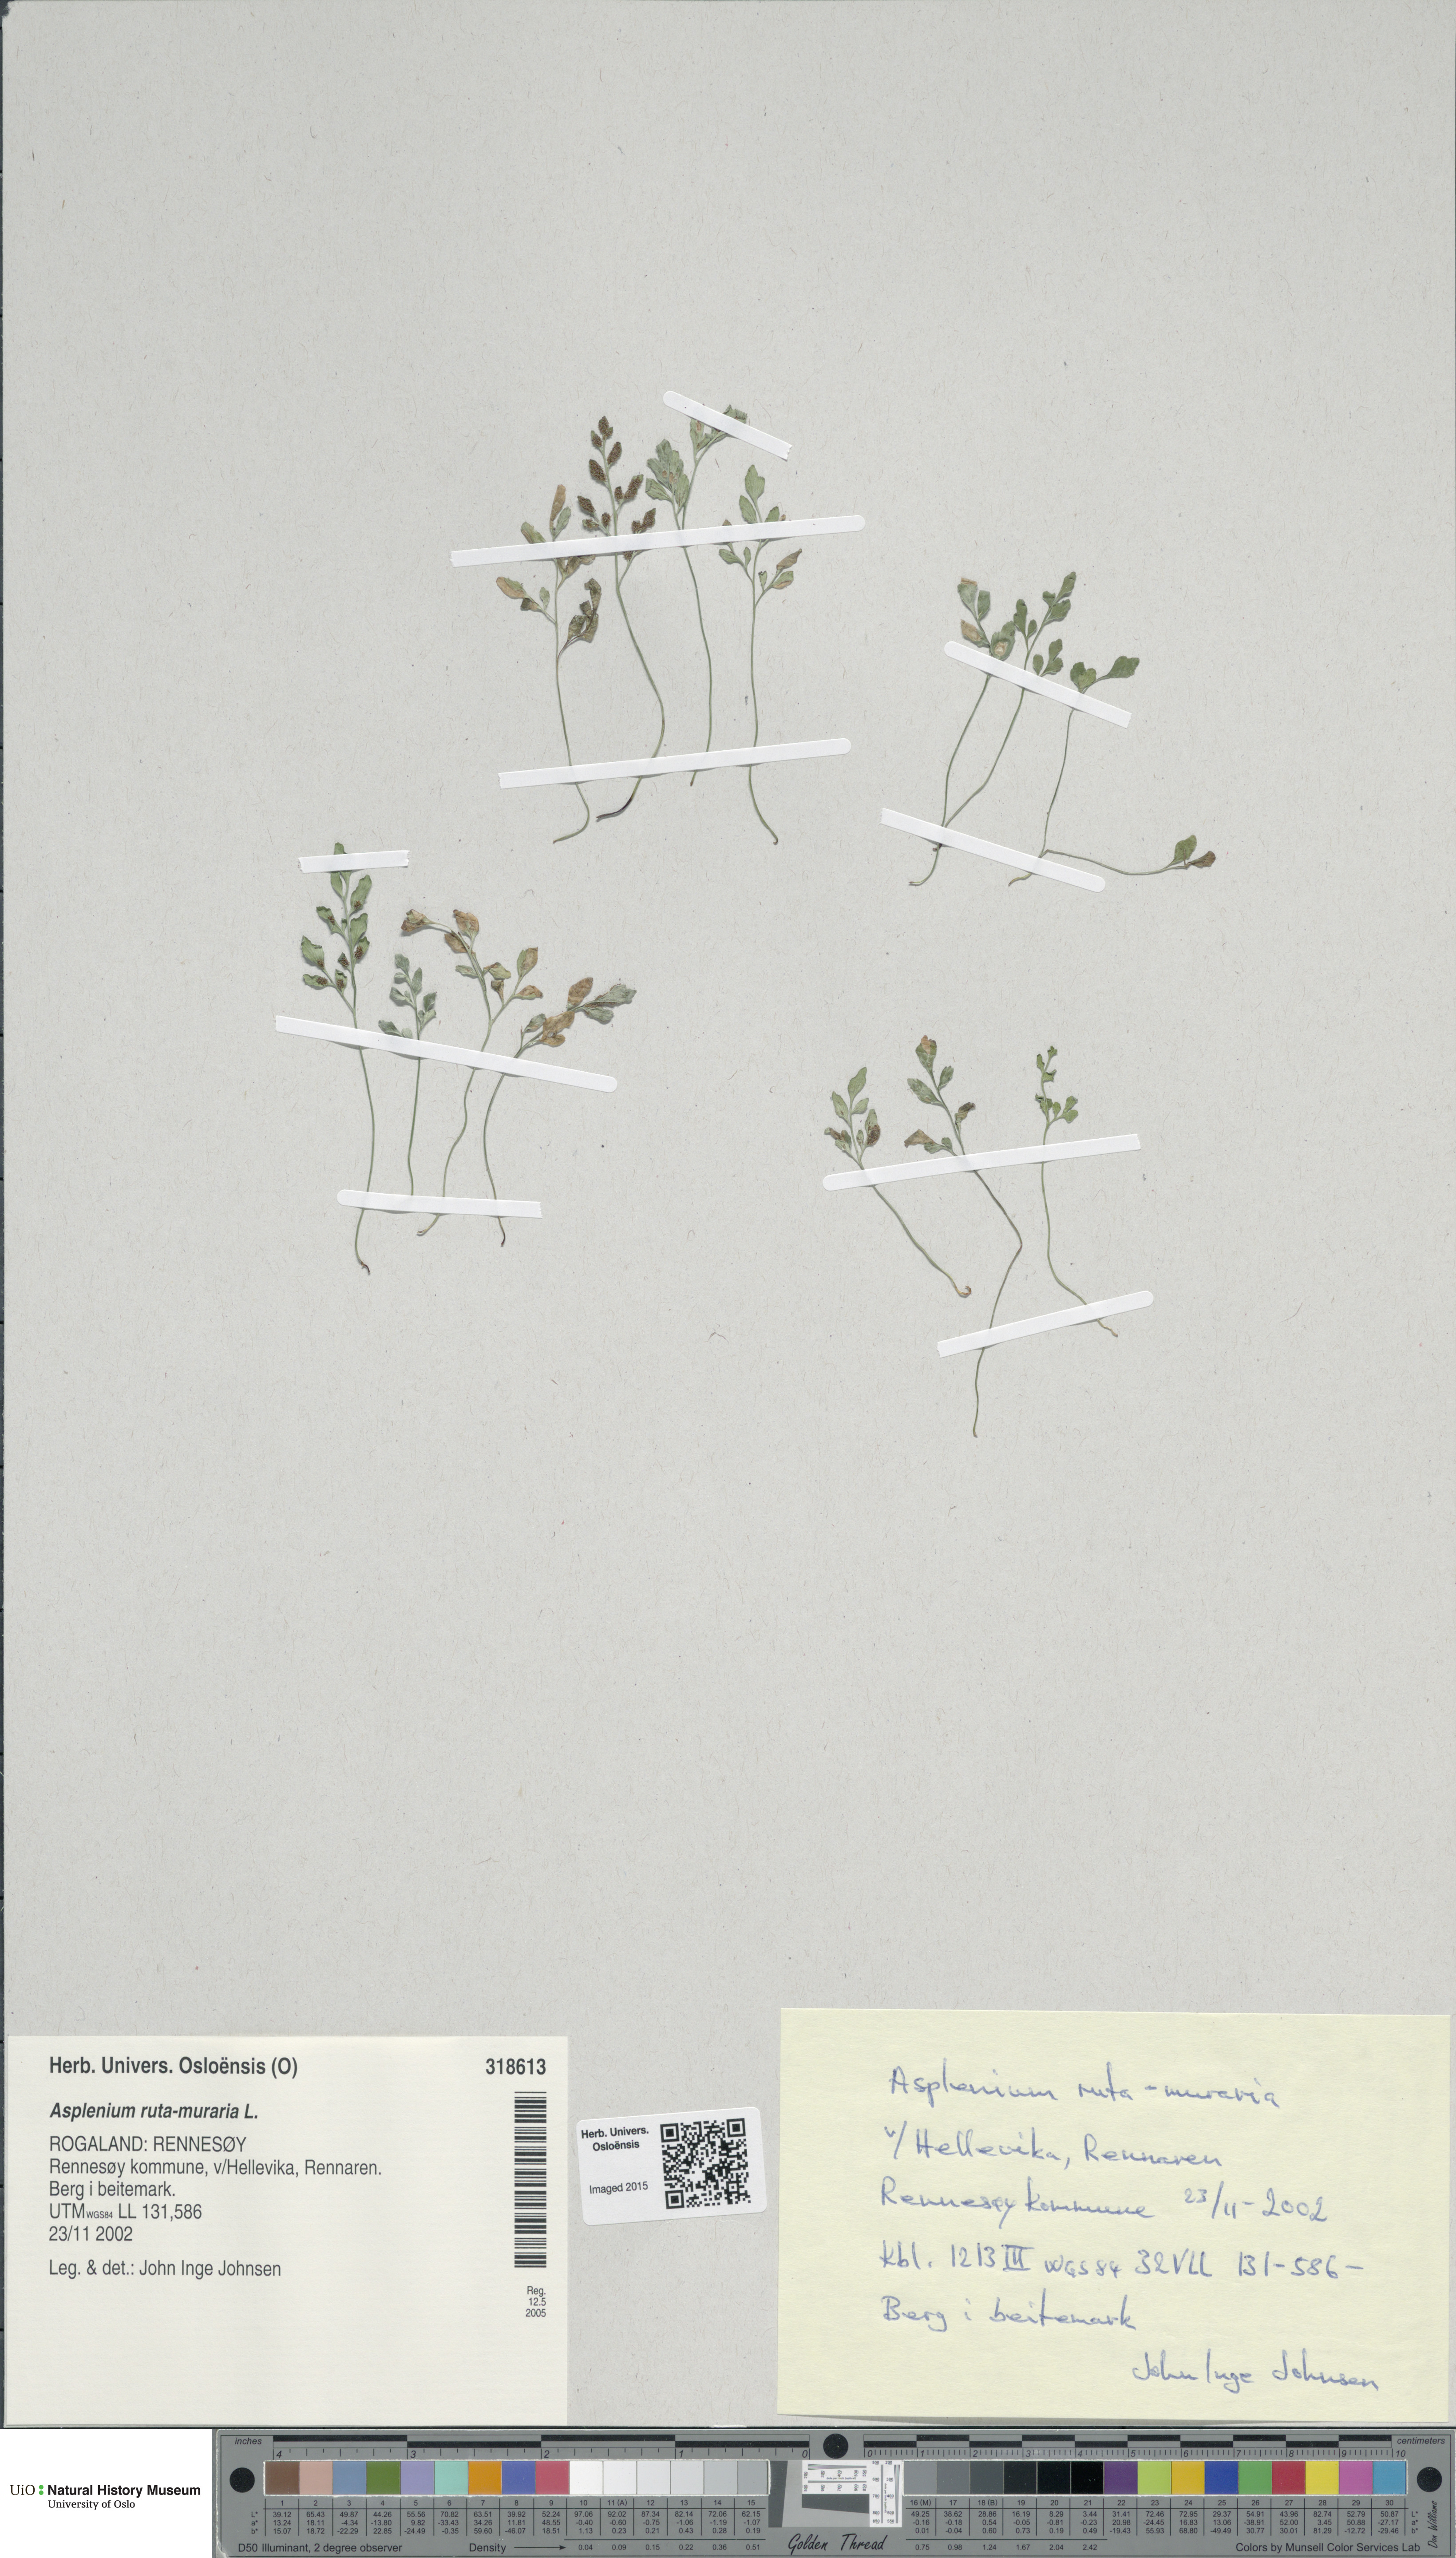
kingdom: Plantae
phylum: Tracheophyta
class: Polypodiopsida
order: Polypodiales
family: Aspleniaceae
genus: Asplenium
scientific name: Asplenium ruta-muraria
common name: Wall-rue
